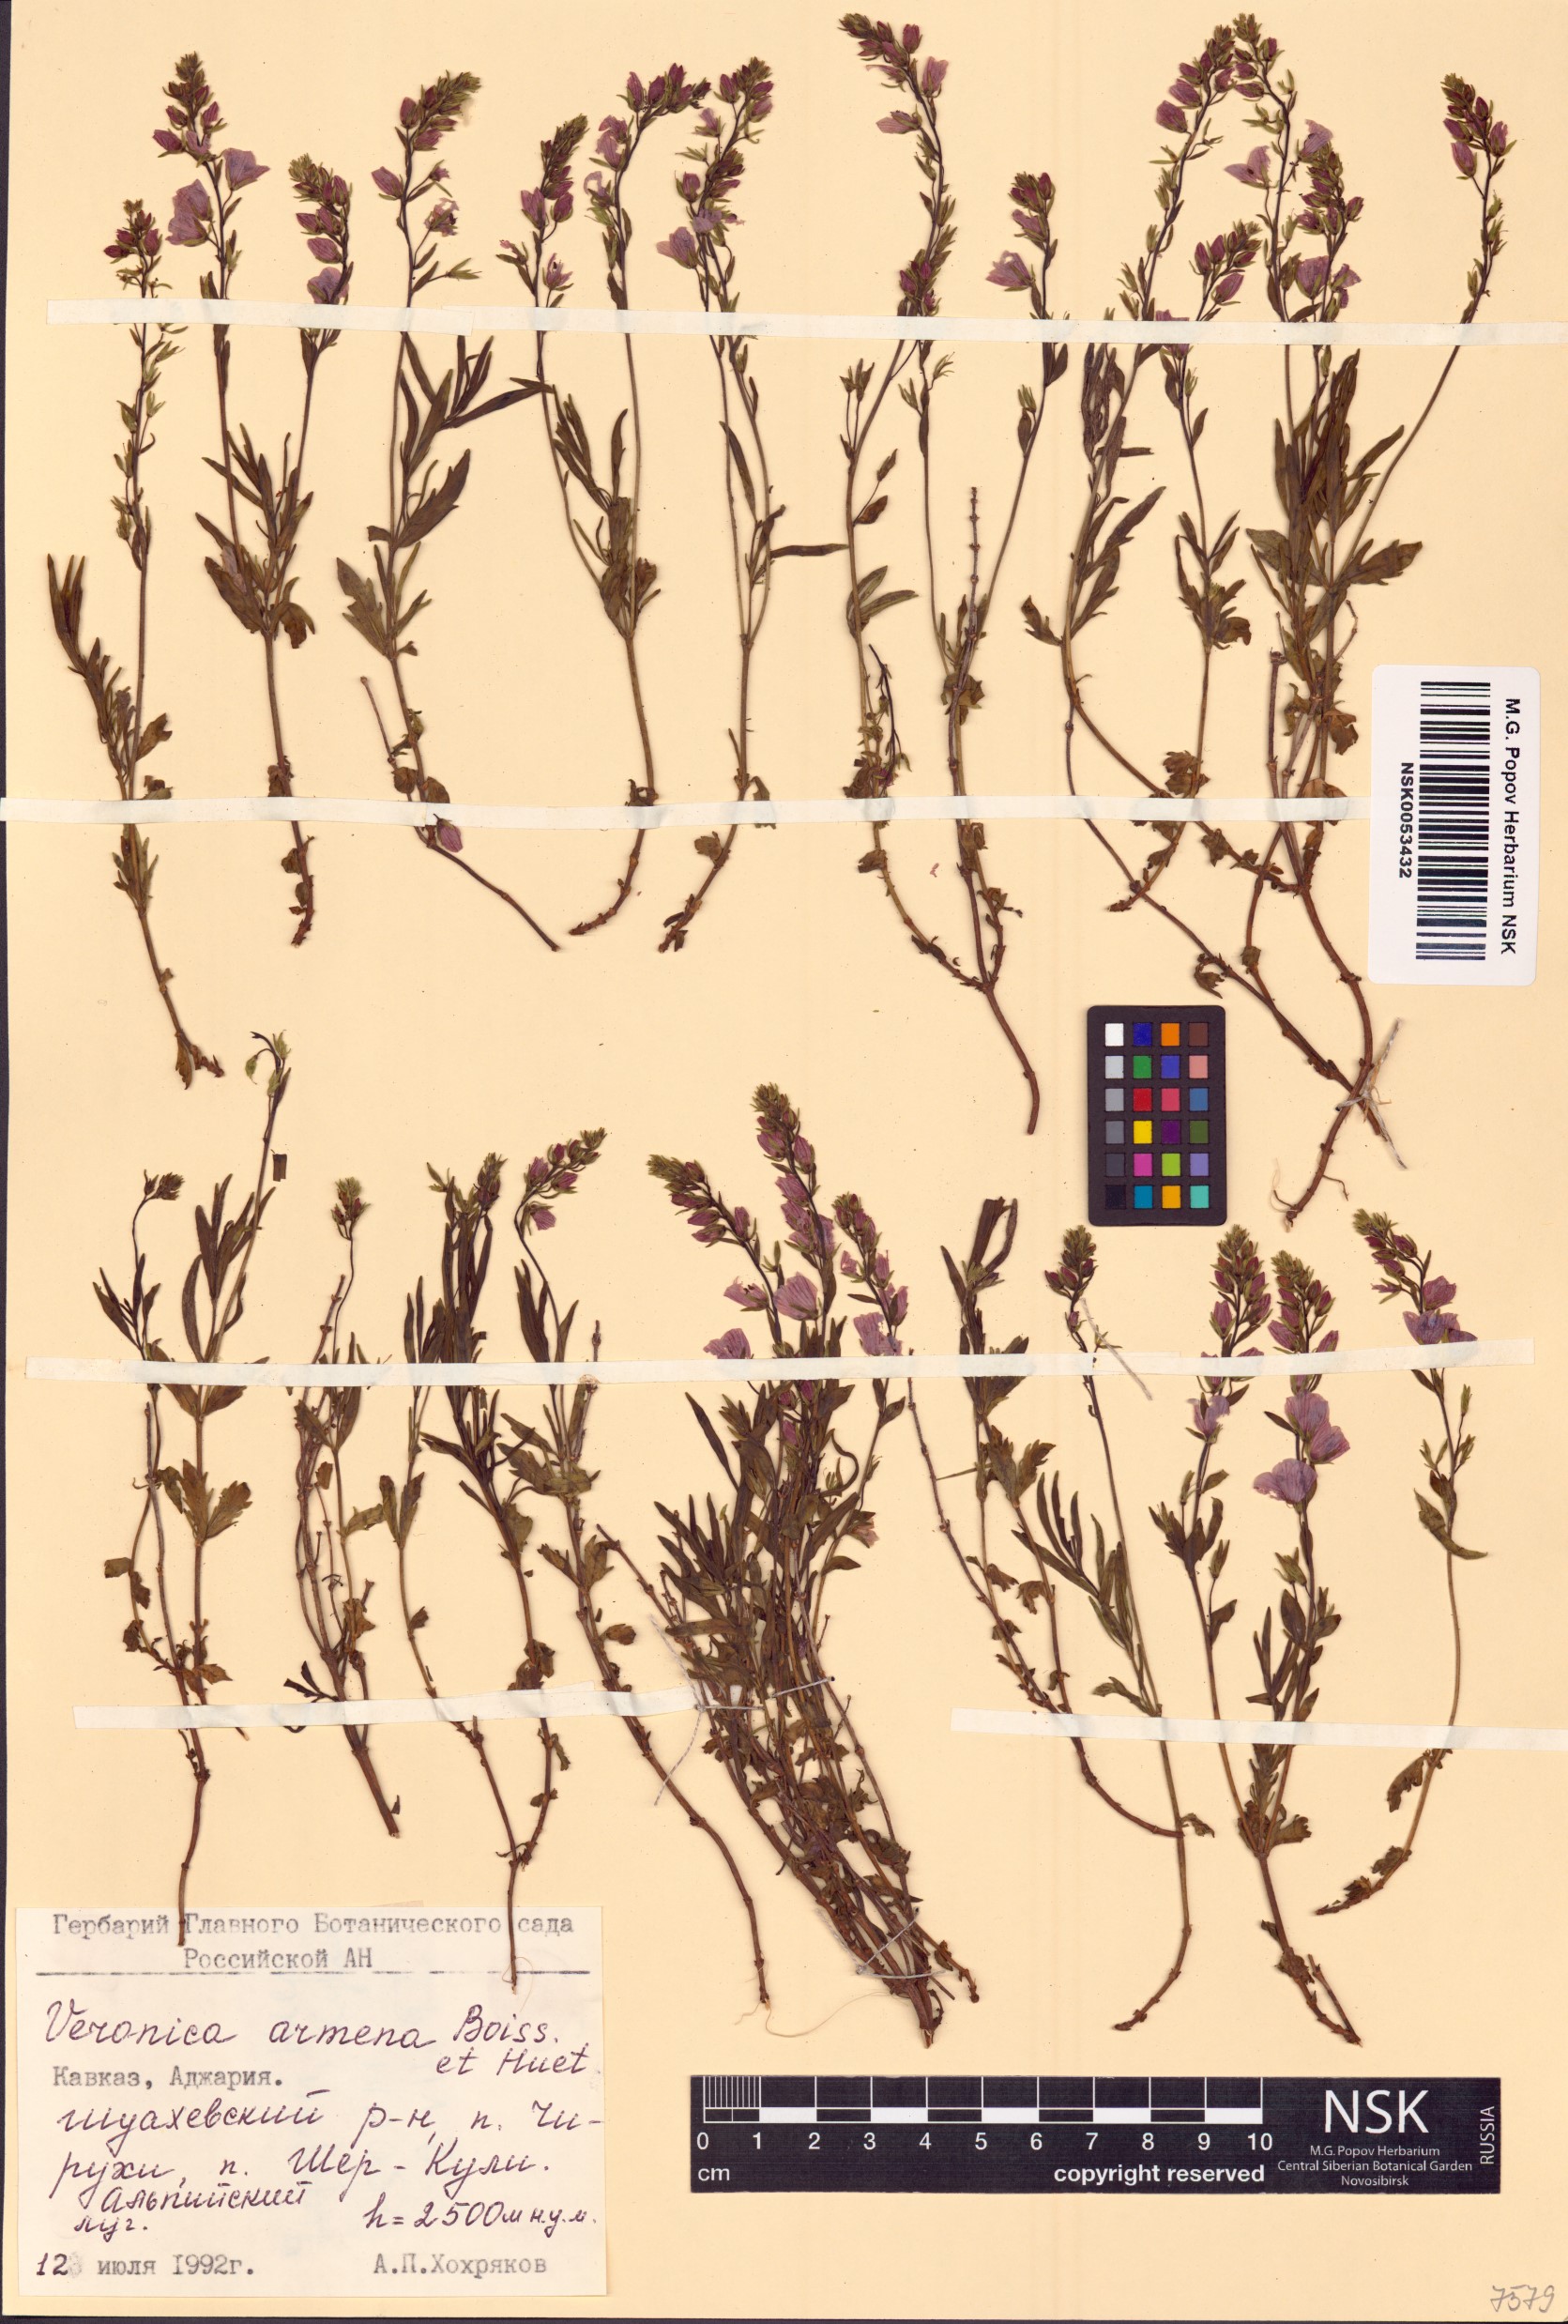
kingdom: Plantae
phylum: Tracheophyta
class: Magnoliopsida
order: Lamiales
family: Plantaginaceae
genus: Veronica
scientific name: Veronica armena
